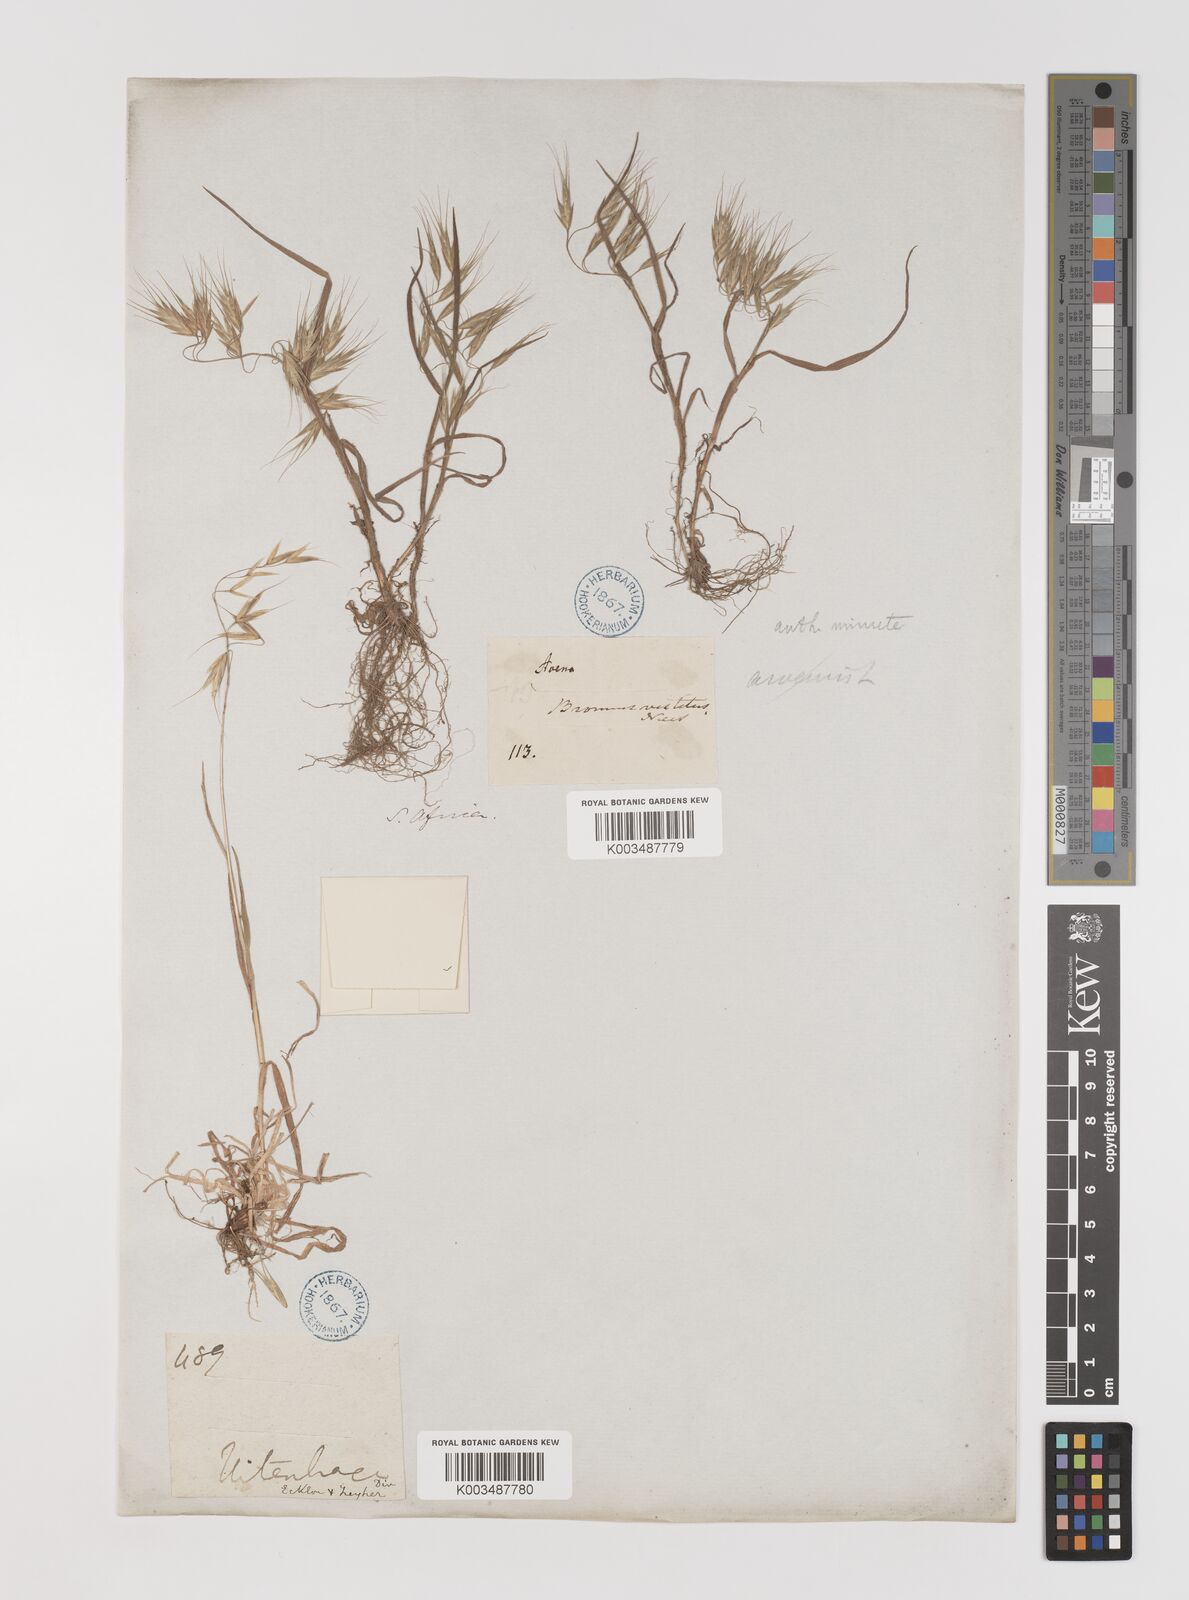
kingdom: Plantae
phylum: Tracheophyta
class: Liliopsida
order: Poales
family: Poaceae
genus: Bromus
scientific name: Bromus pectinatus
